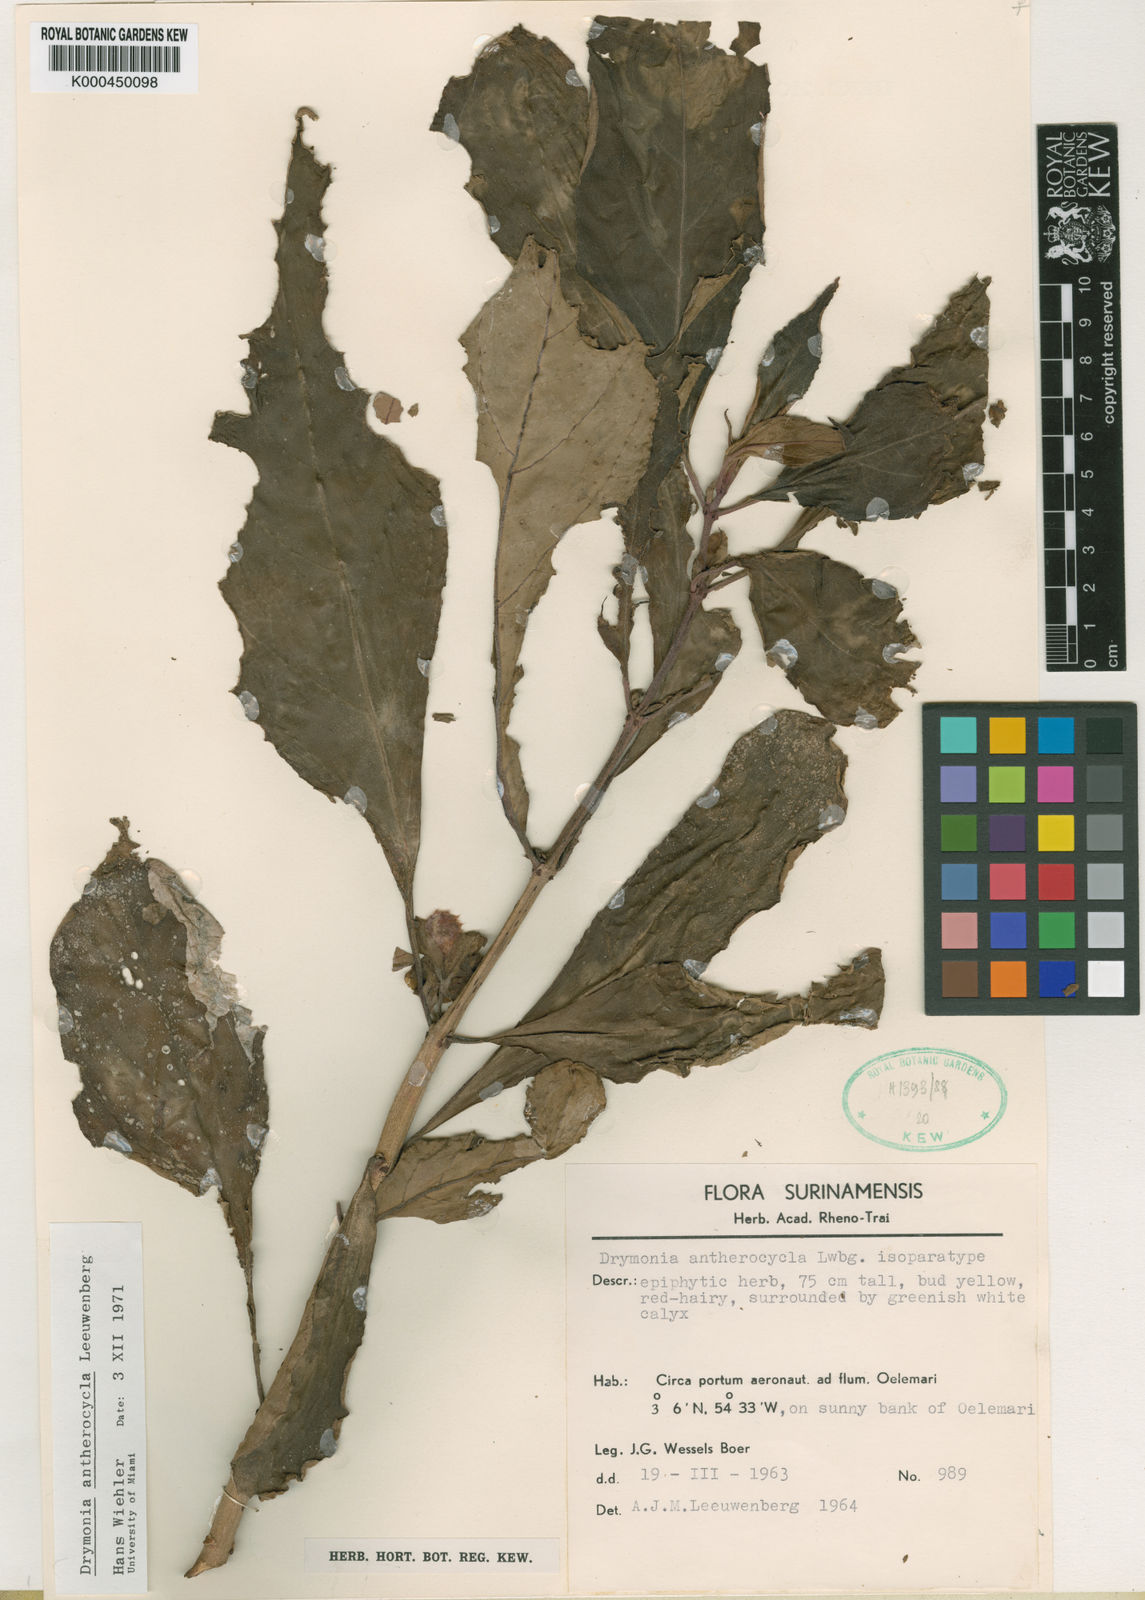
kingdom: Plantae
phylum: Tracheophyta
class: Magnoliopsida
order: Lamiales
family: Gesneriaceae
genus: Drymonia
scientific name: Drymonia antherocycla
